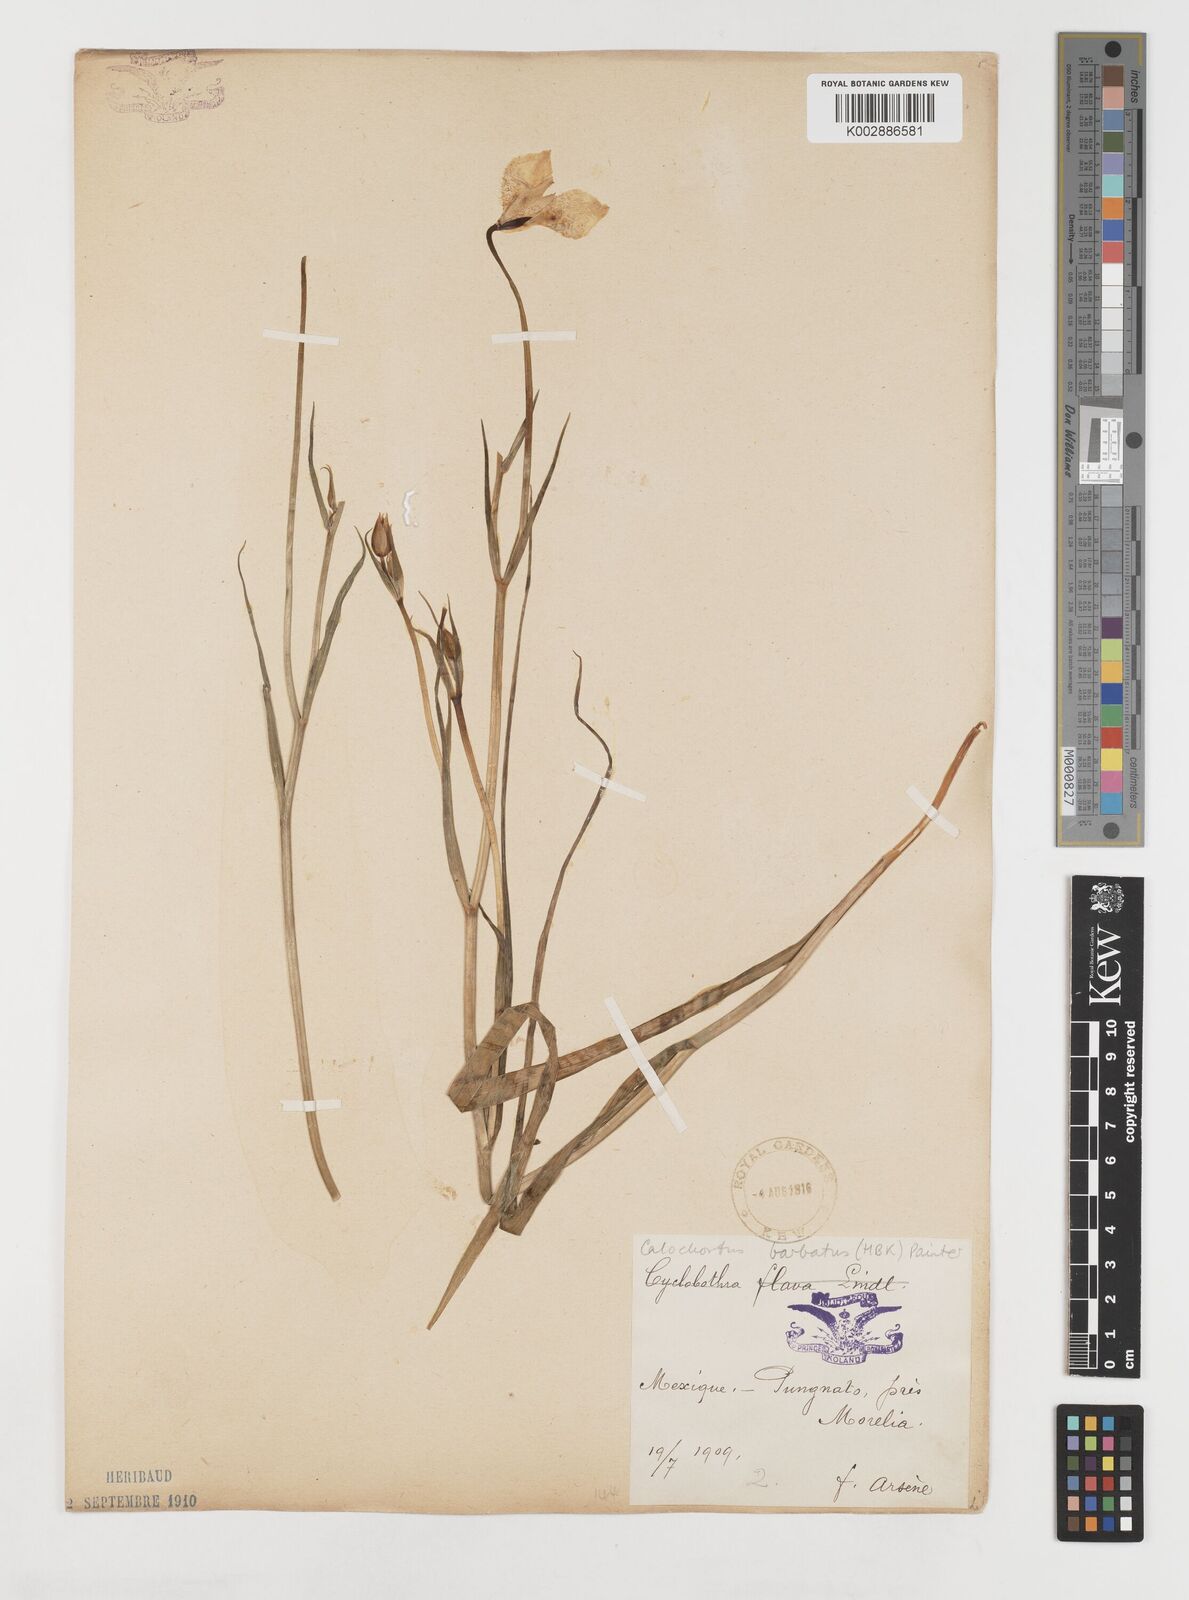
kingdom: Plantae
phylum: Tracheophyta
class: Liliopsida
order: Liliales
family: Liliaceae
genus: Calochortus
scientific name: Calochortus barbatus
